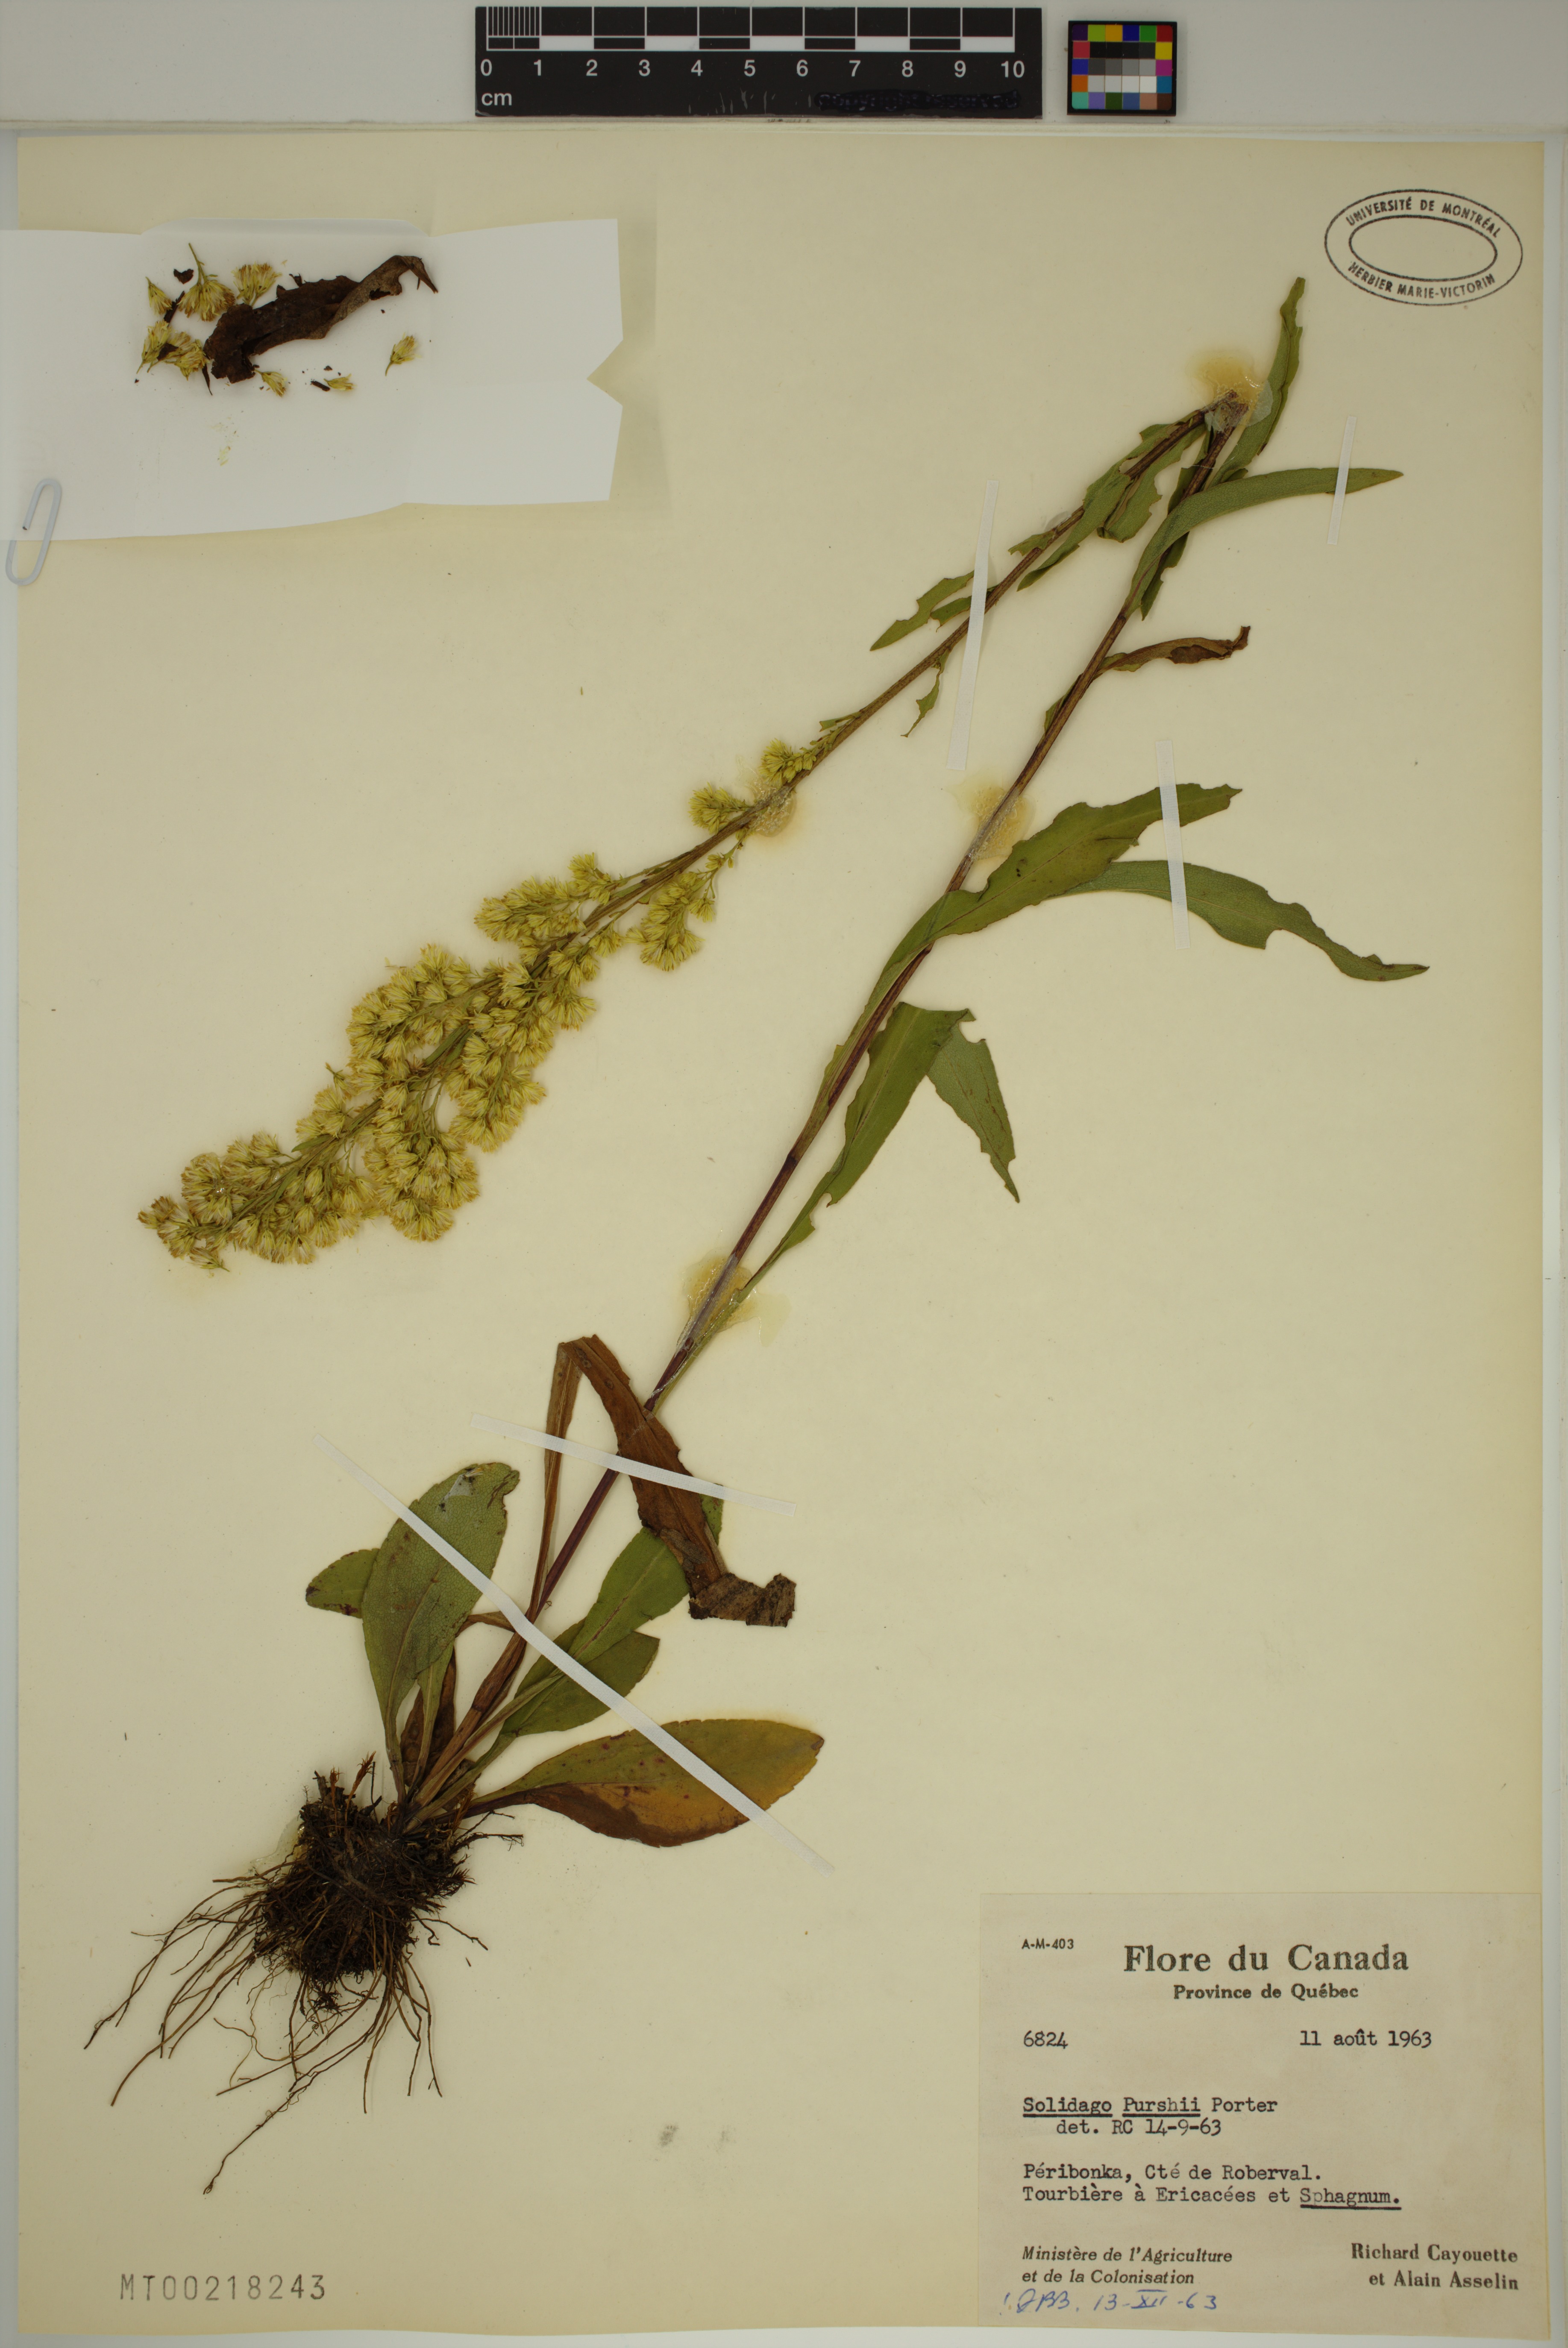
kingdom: Plantae
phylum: Tracheophyta
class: Magnoliopsida
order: Asterales
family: Asteraceae
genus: Solidago
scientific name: Solidago uliginosa
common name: Bog goldenrod
